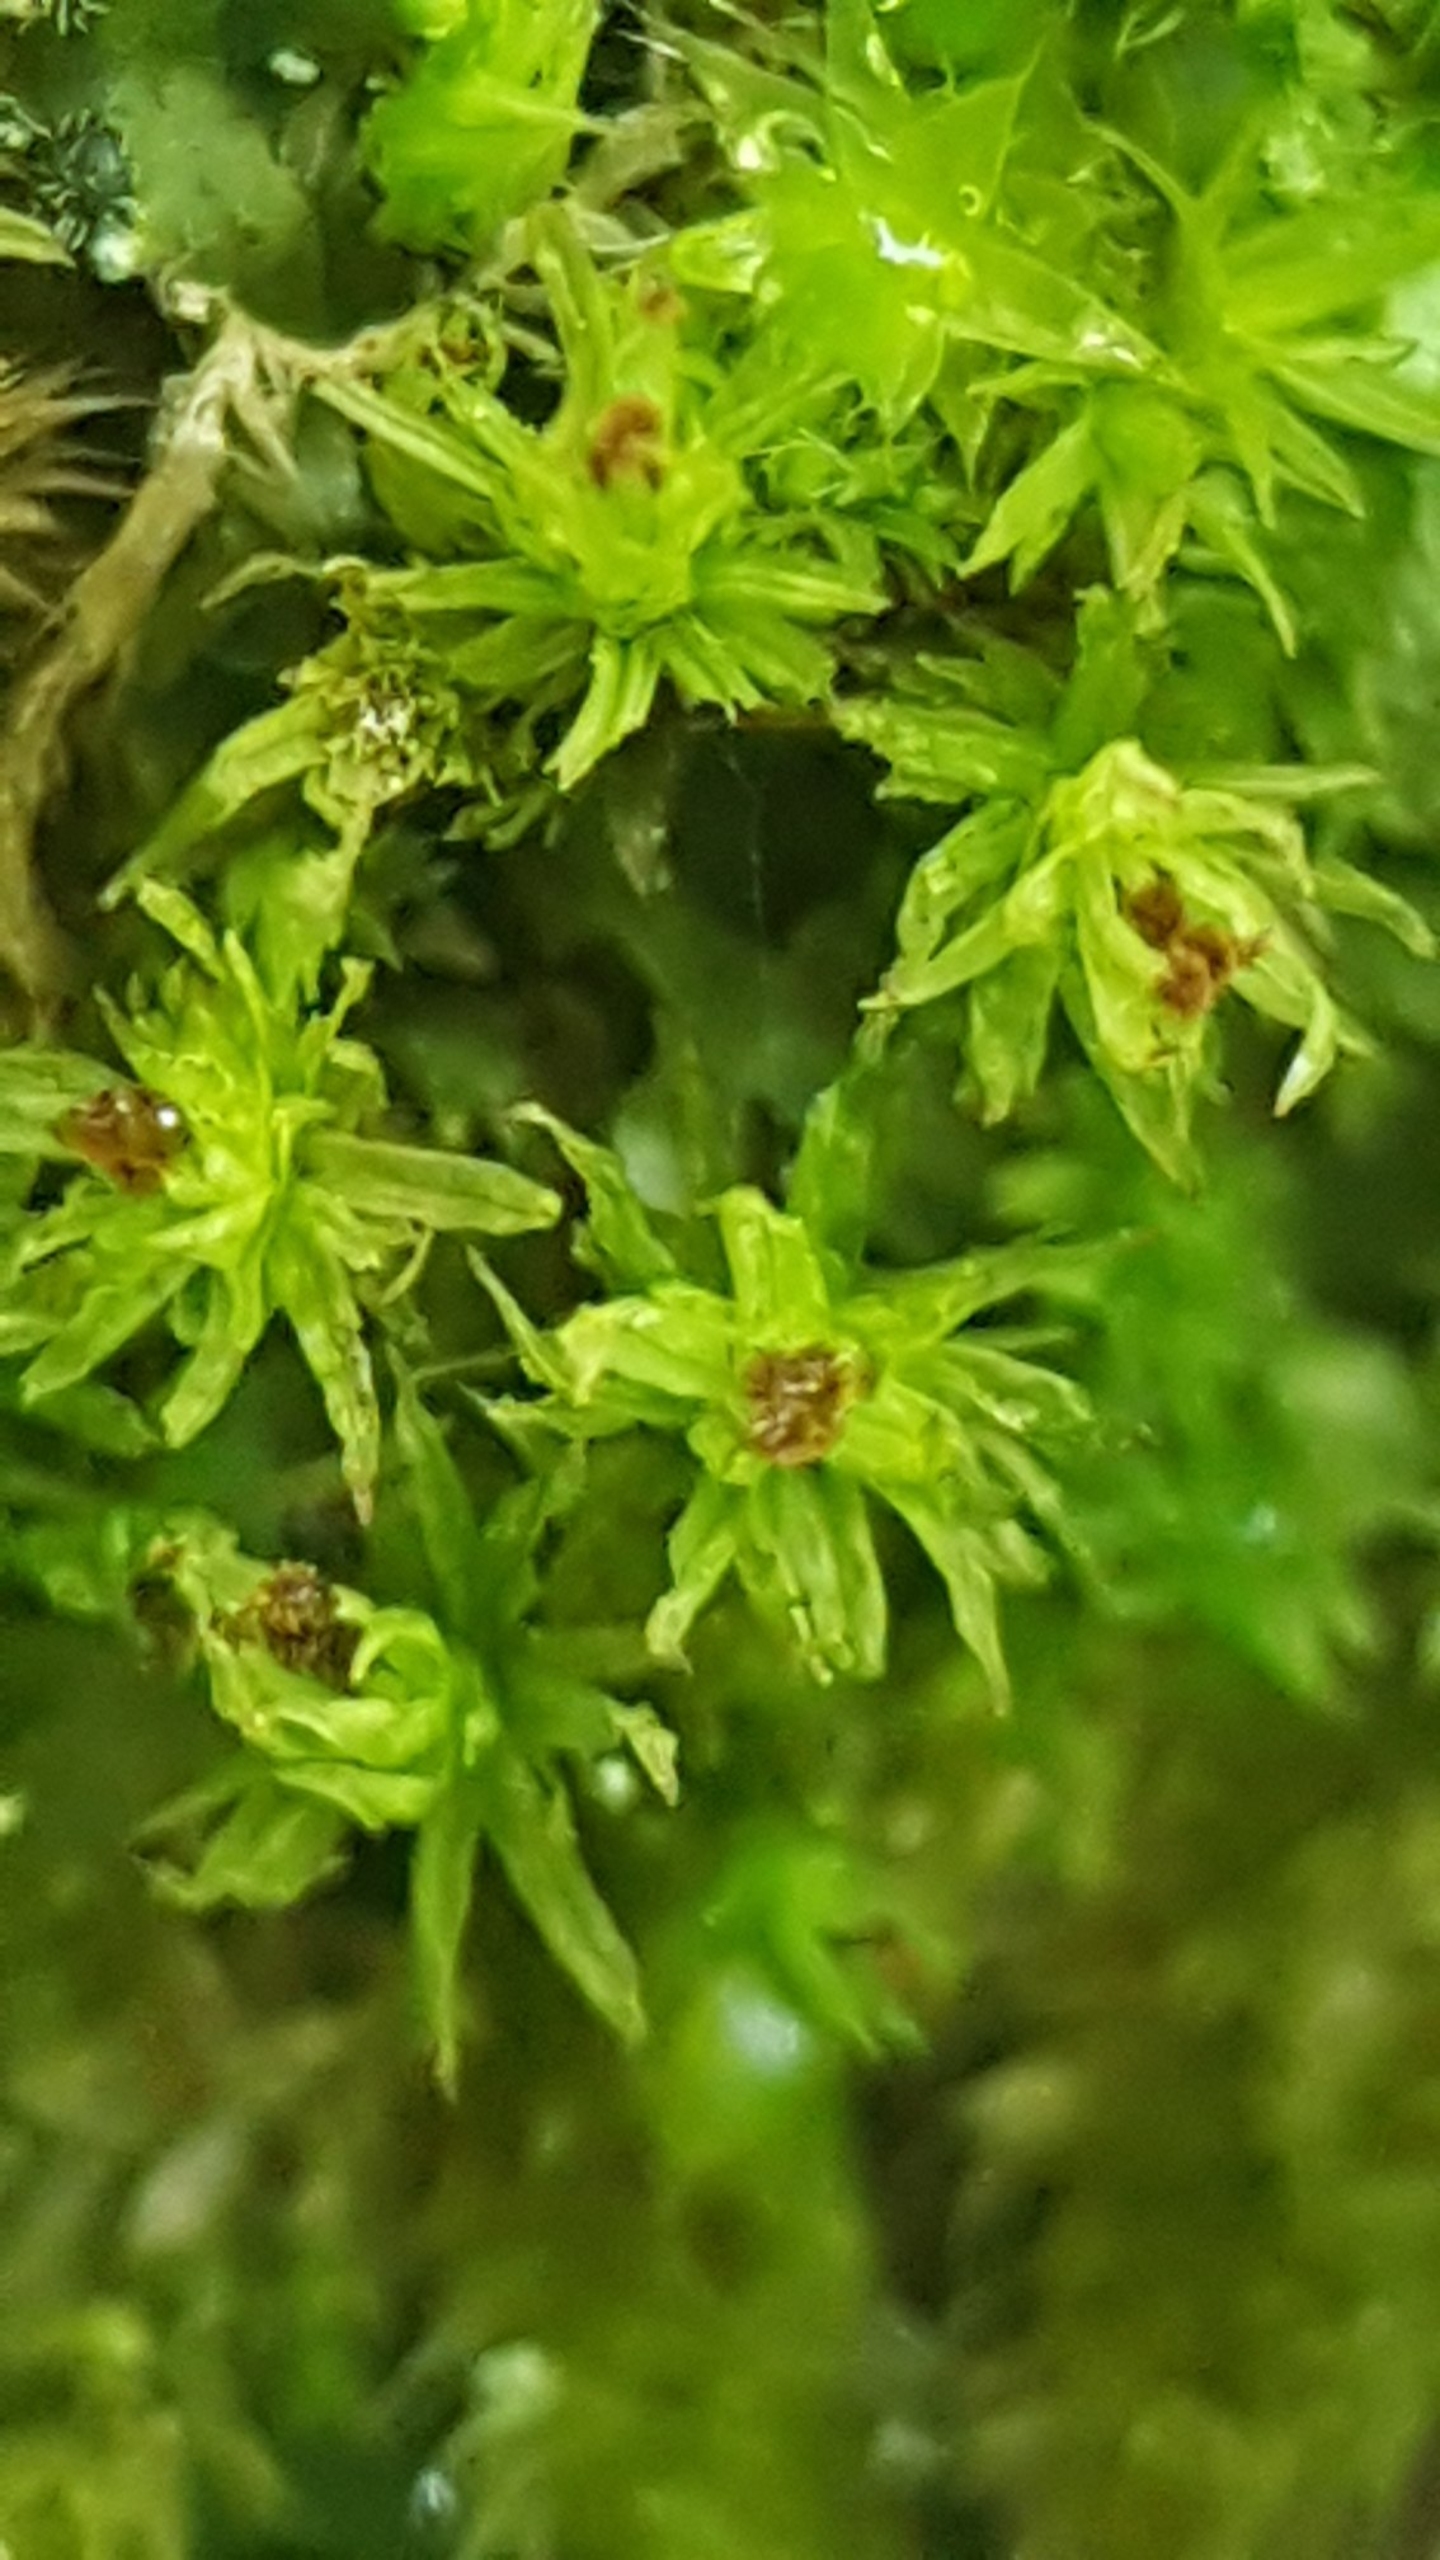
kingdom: Plantae
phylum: Bryophyta
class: Bryopsida
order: Orthotrichales
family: Orthotrichaceae
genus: Plenogemma
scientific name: Plenogemma phyllantha
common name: Stor låddenhætte
